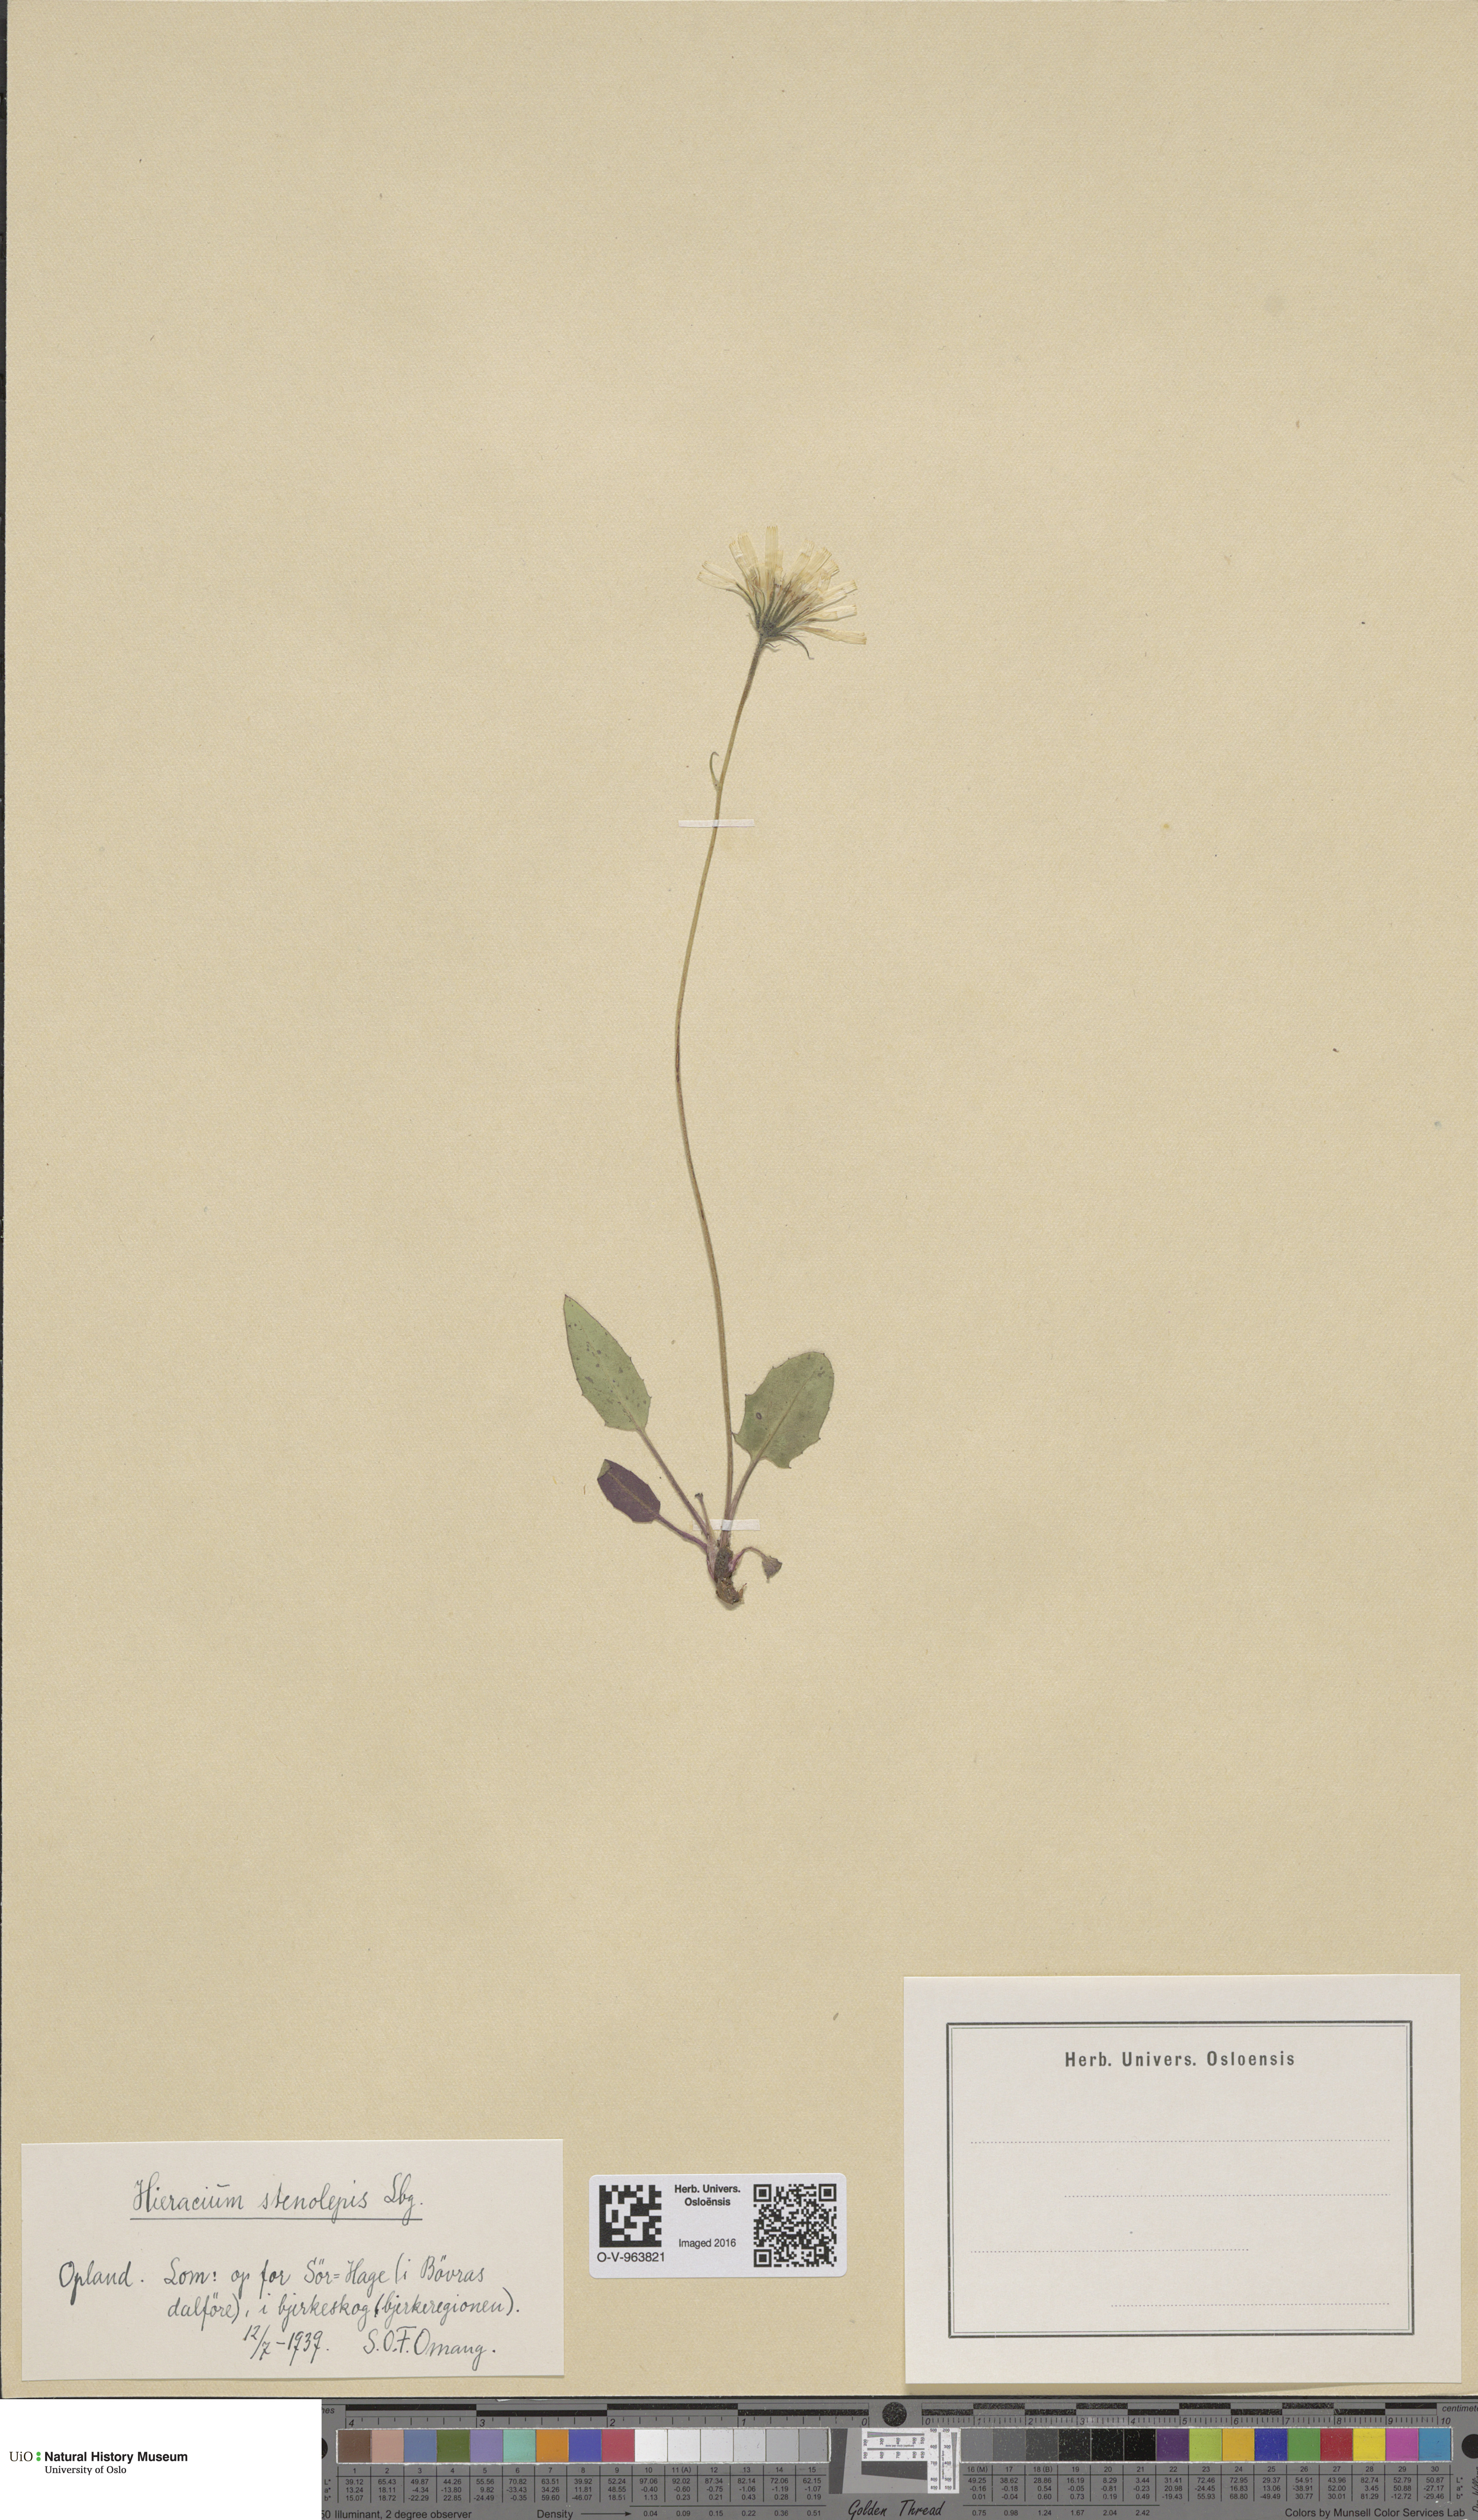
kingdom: Plantae
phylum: Tracheophyta
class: Magnoliopsida
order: Asterales
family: Asteraceae
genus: Hieracium
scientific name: Hieracium bifidum
